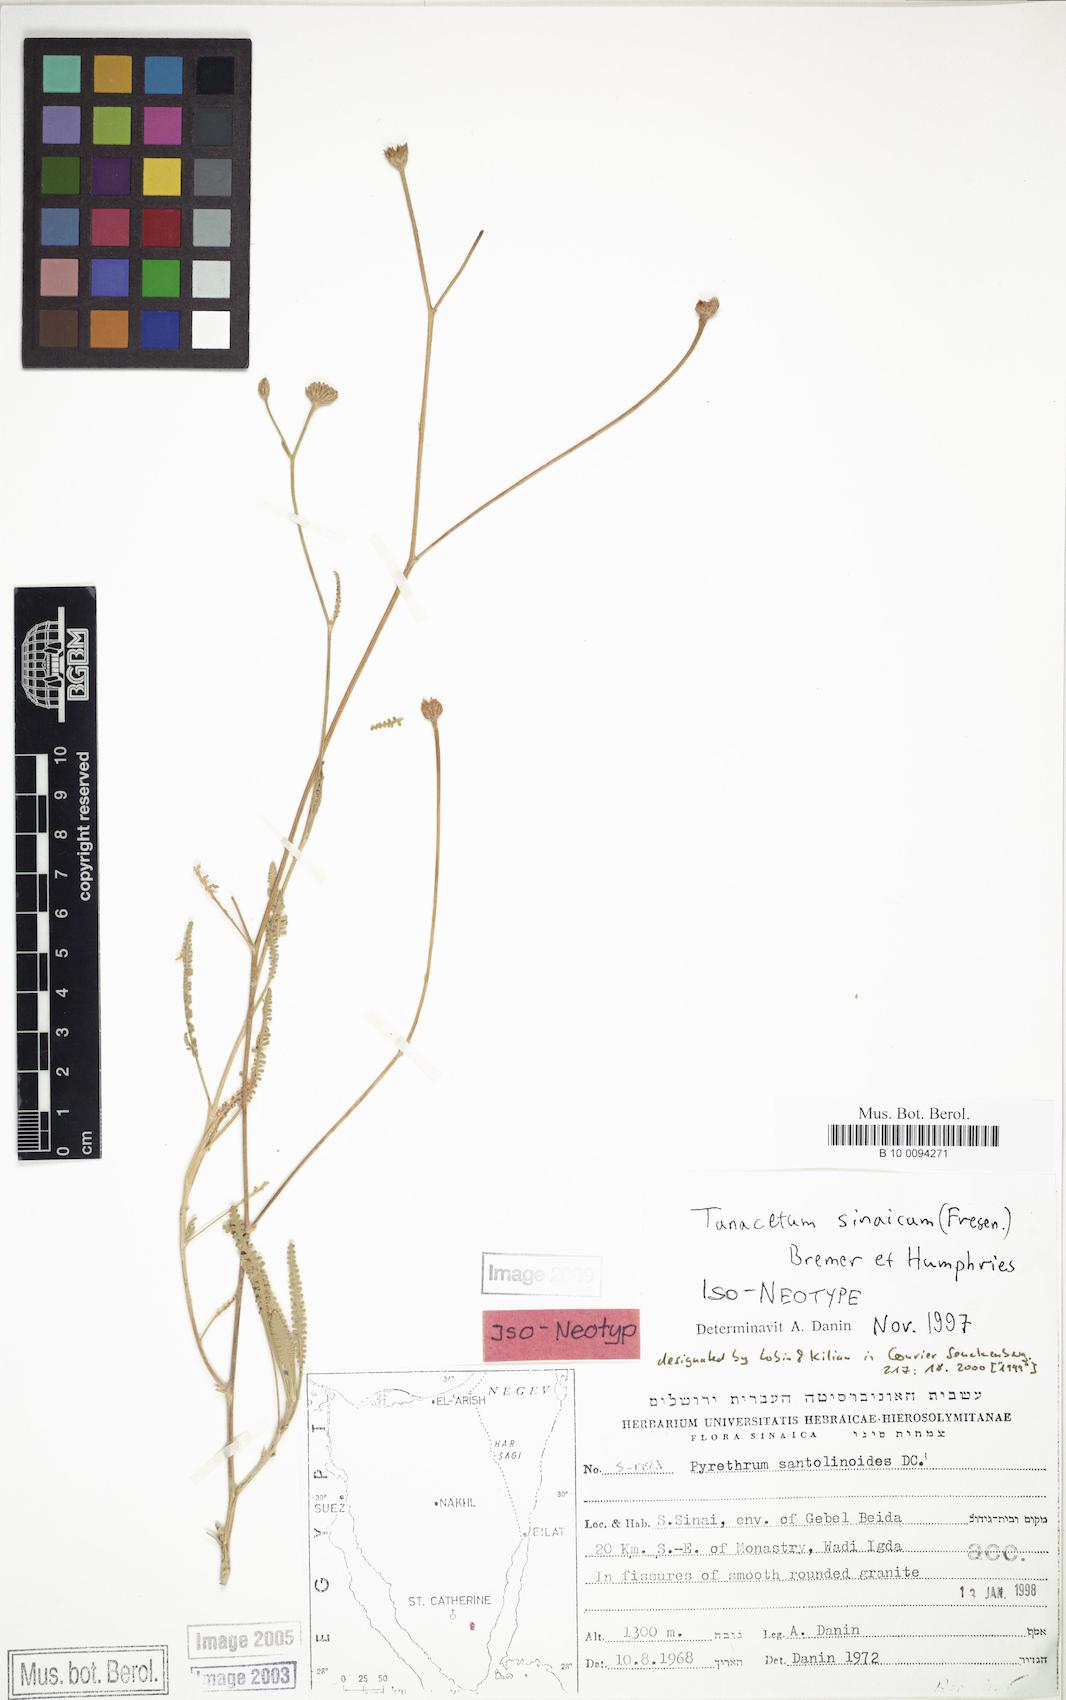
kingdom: Plantae
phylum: Tracheophyta
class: Magnoliopsida
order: Asterales
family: Asteraceae
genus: Tanacetum
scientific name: Tanacetum sinaicum
